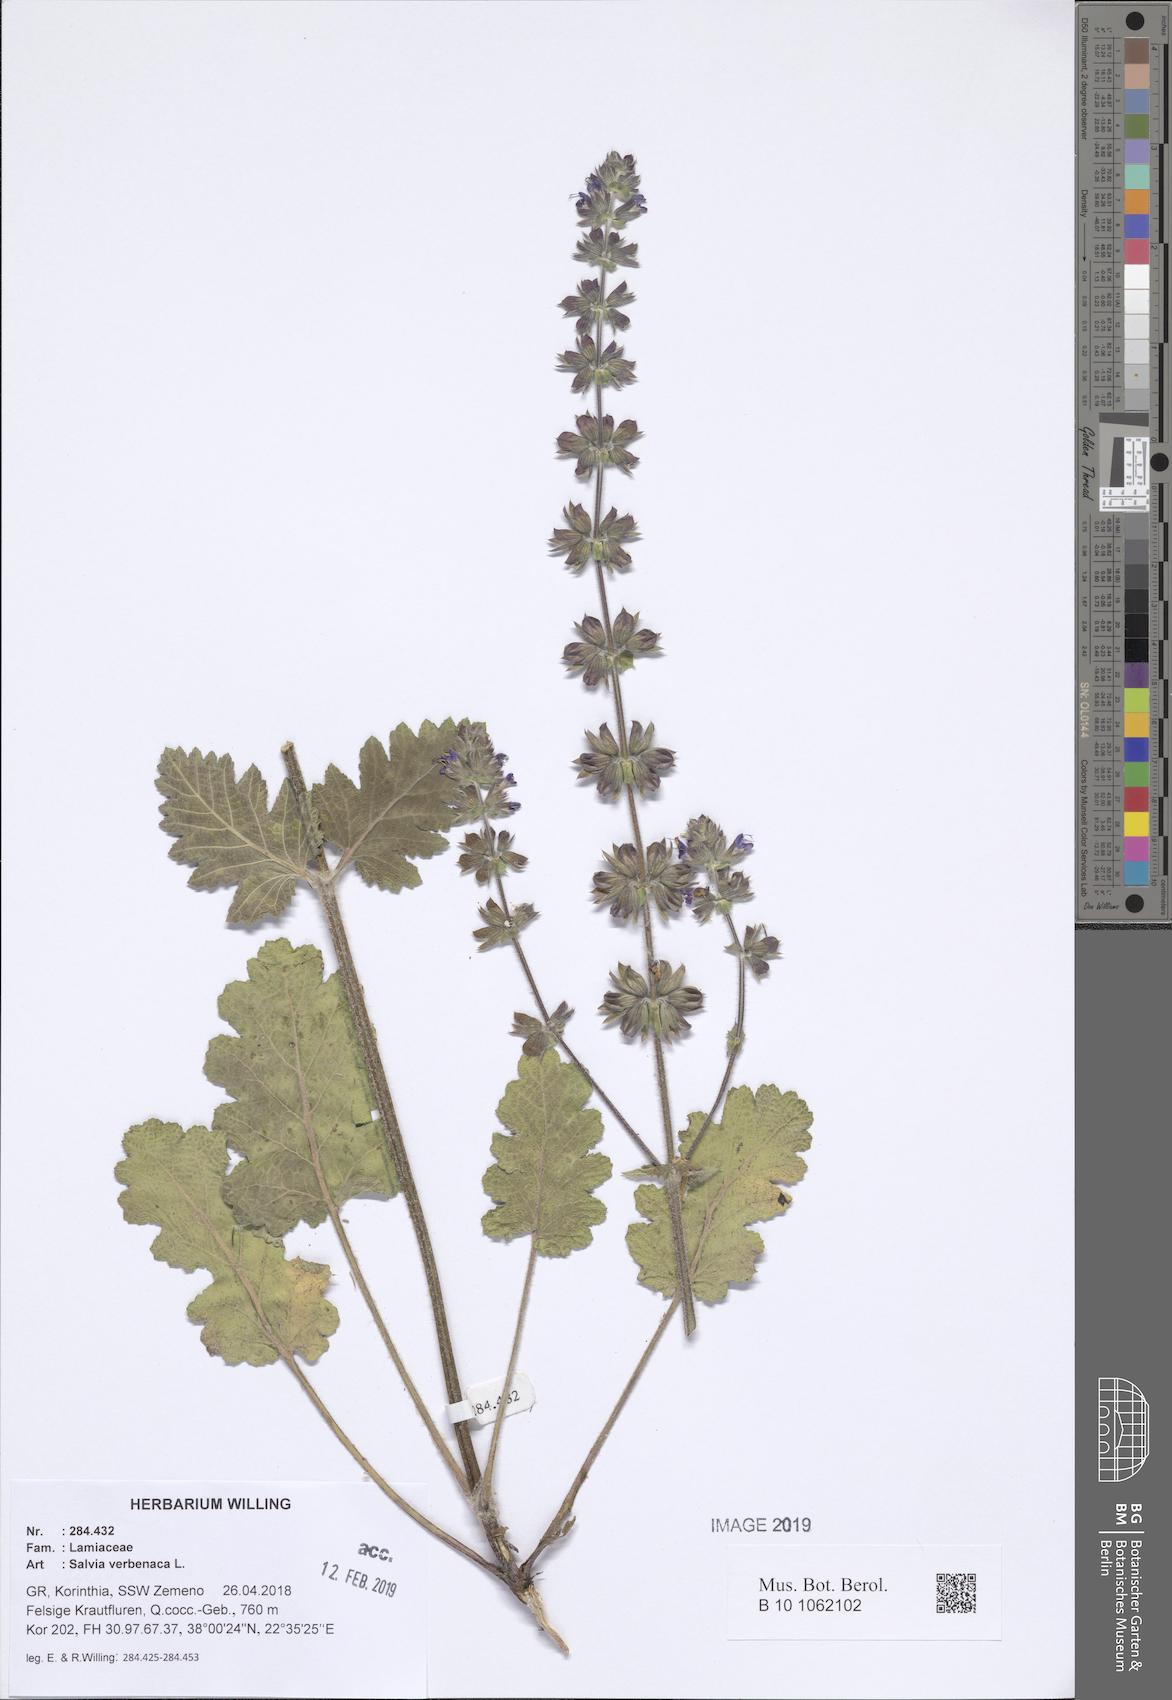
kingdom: Plantae
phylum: Tracheophyta
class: Magnoliopsida
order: Lamiales
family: Lamiaceae
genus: Salvia
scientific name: Salvia verbenaca
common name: Wild clary
